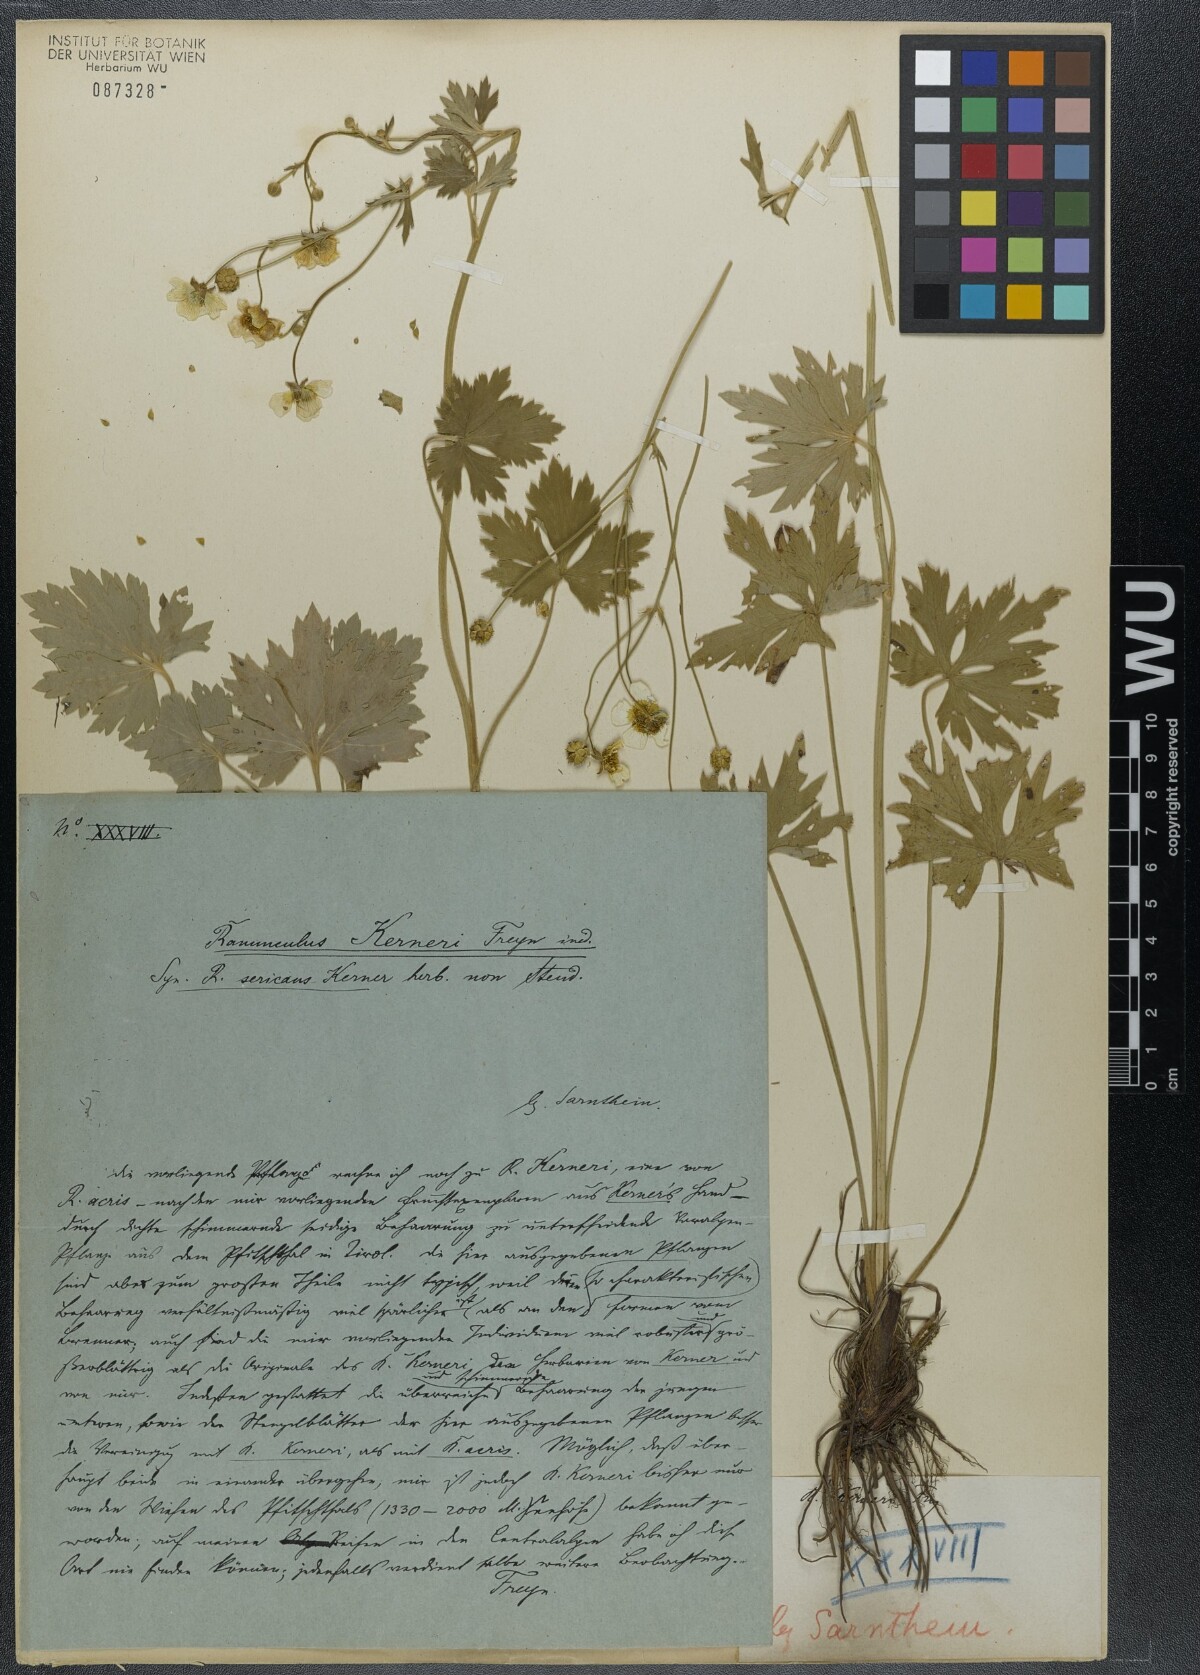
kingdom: Plantae
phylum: Tracheophyta
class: Magnoliopsida
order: Ranunculales
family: Ranunculaceae
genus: Ranunculus
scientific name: Ranunculus acris
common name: Meadow buttercup
